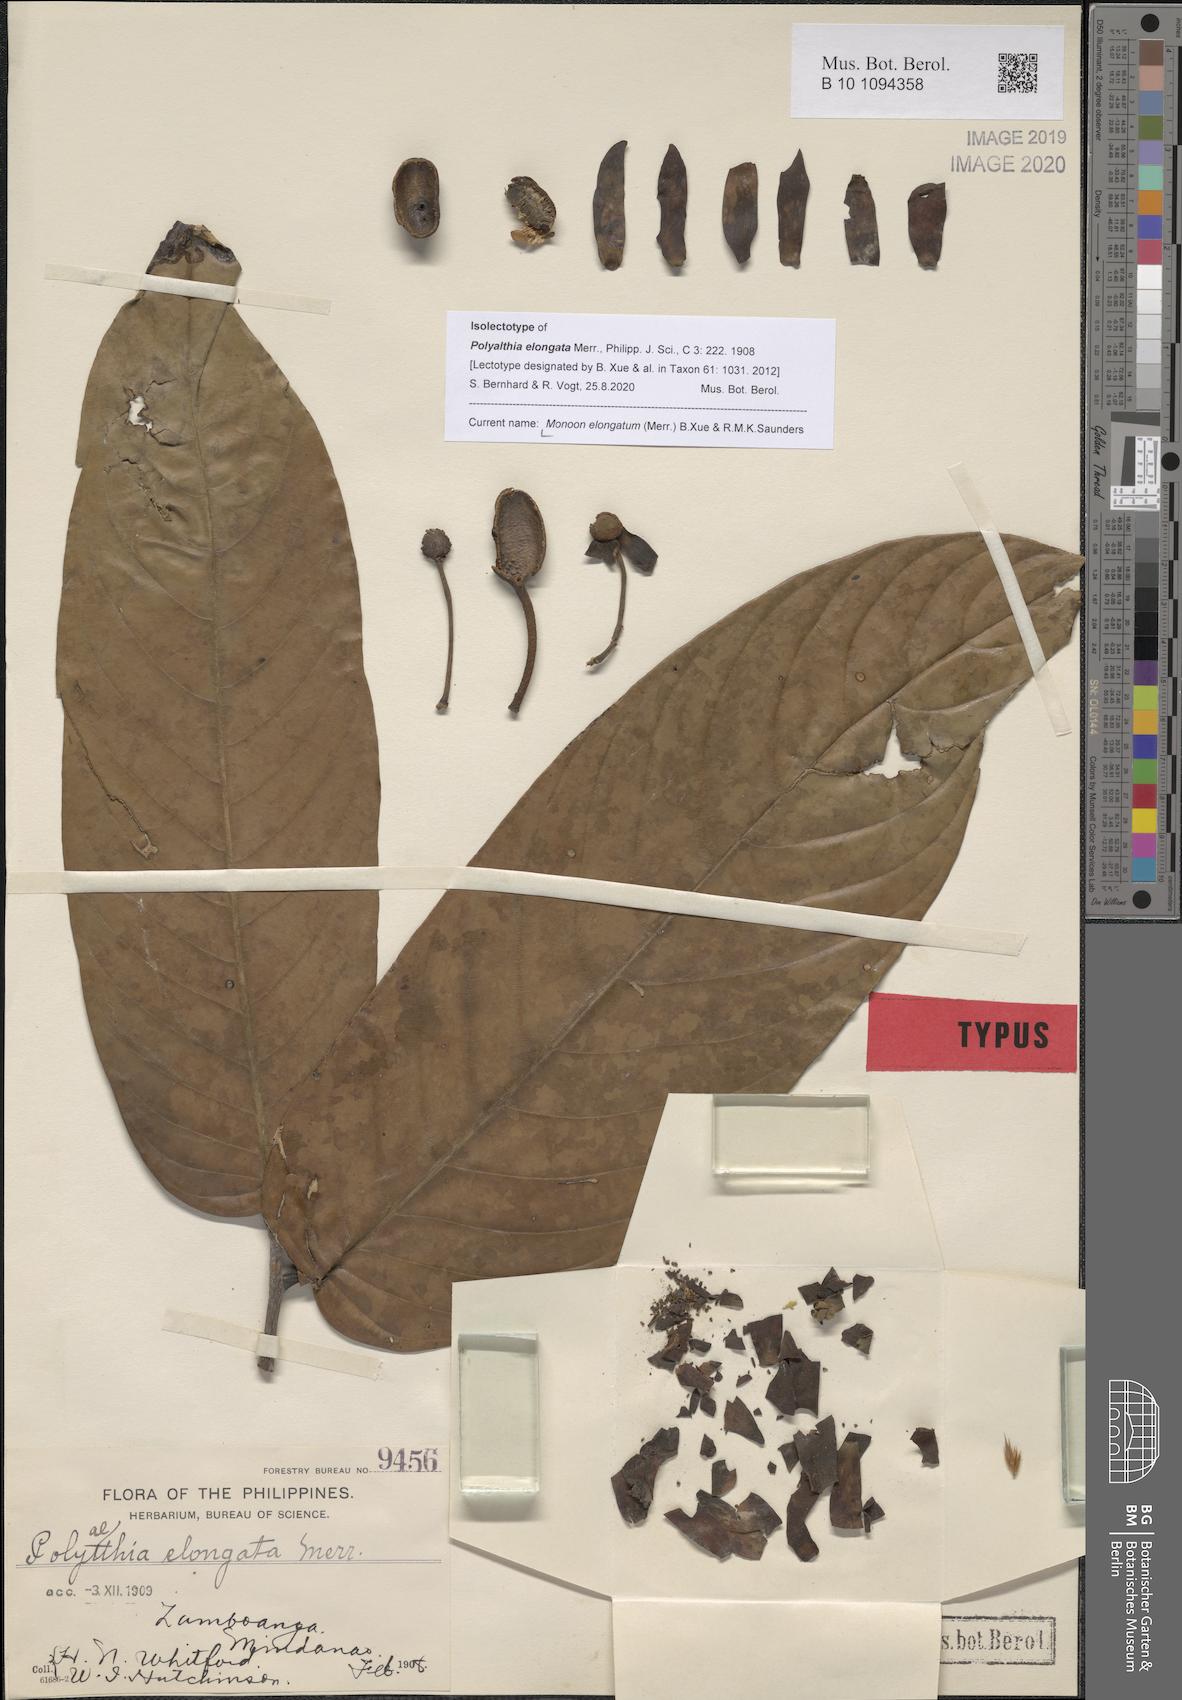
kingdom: Plantae
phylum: Tracheophyta
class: Magnoliopsida
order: Magnoliales
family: Annonaceae
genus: Polyalthia
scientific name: Polyalthia elongata
